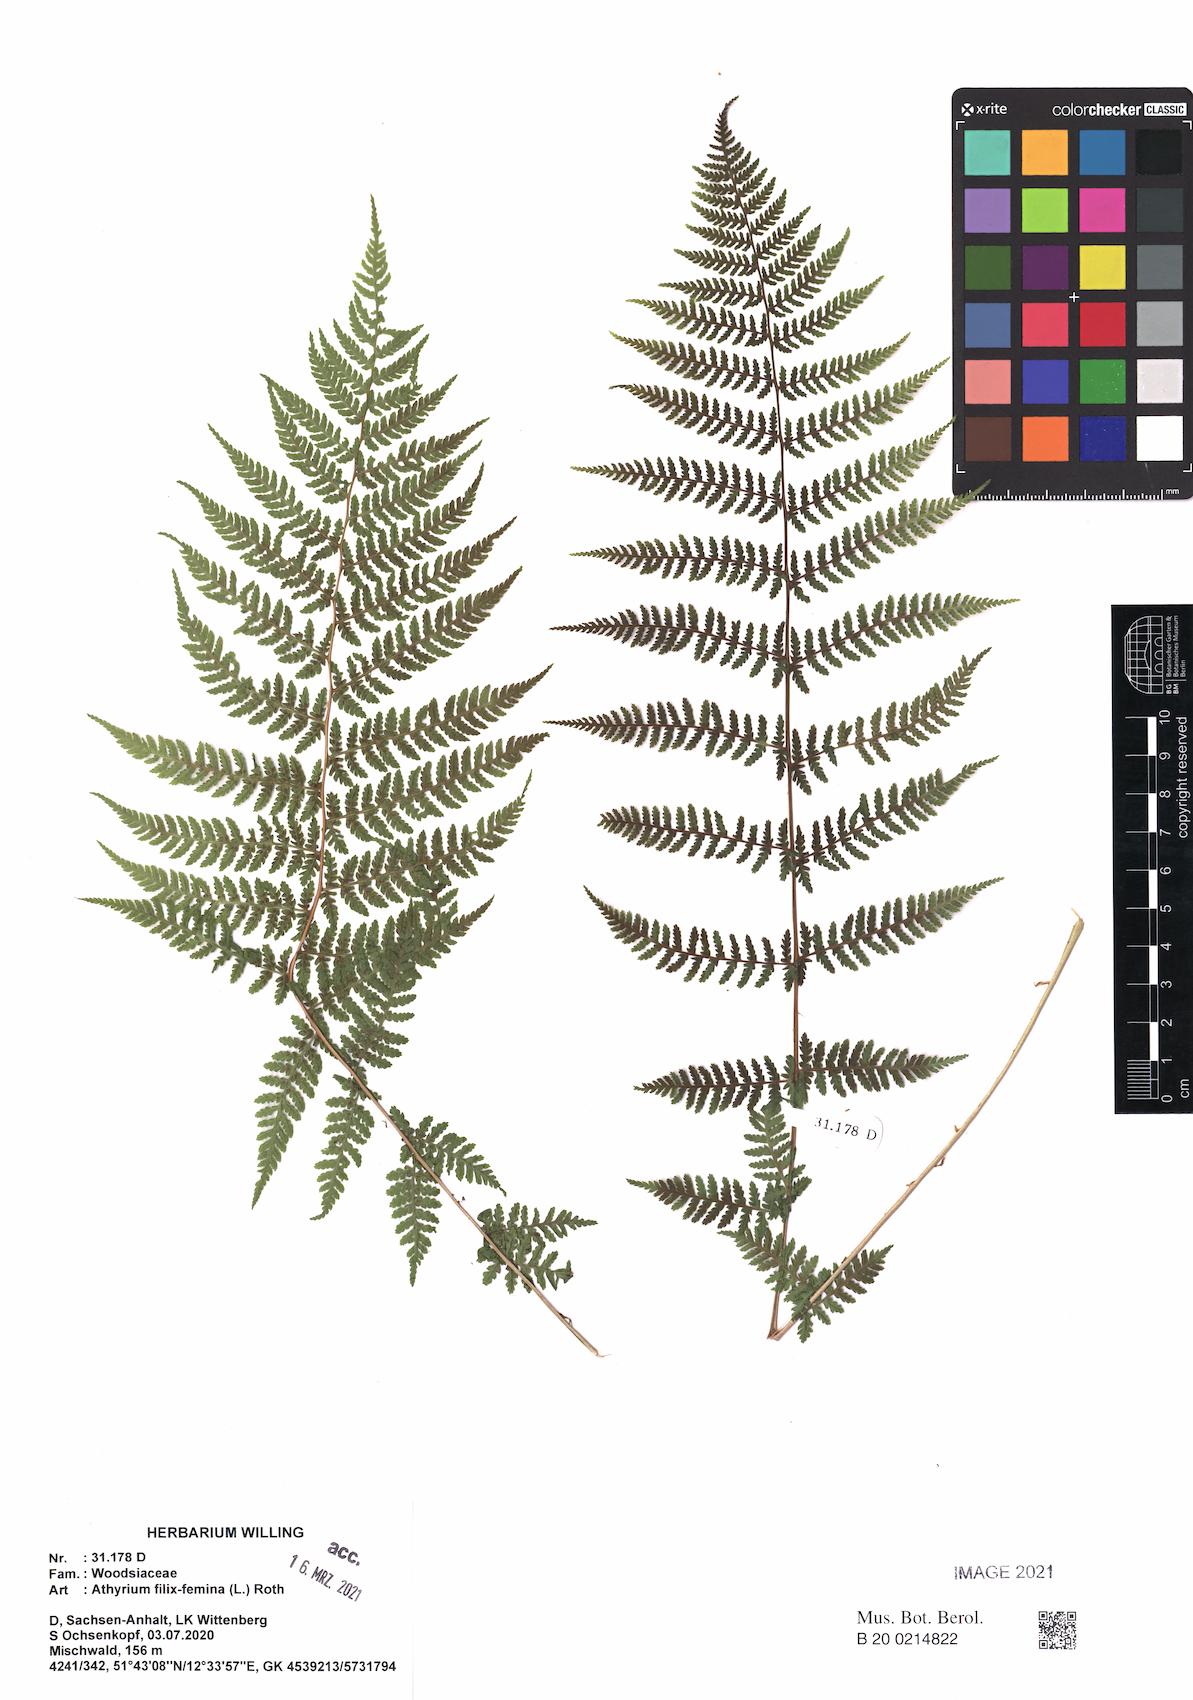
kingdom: Plantae
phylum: Tracheophyta
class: Polypodiopsida
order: Polypodiales
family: Athyriaceae
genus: Athyrium
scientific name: Athyrium filix-femina
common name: Lady fern
